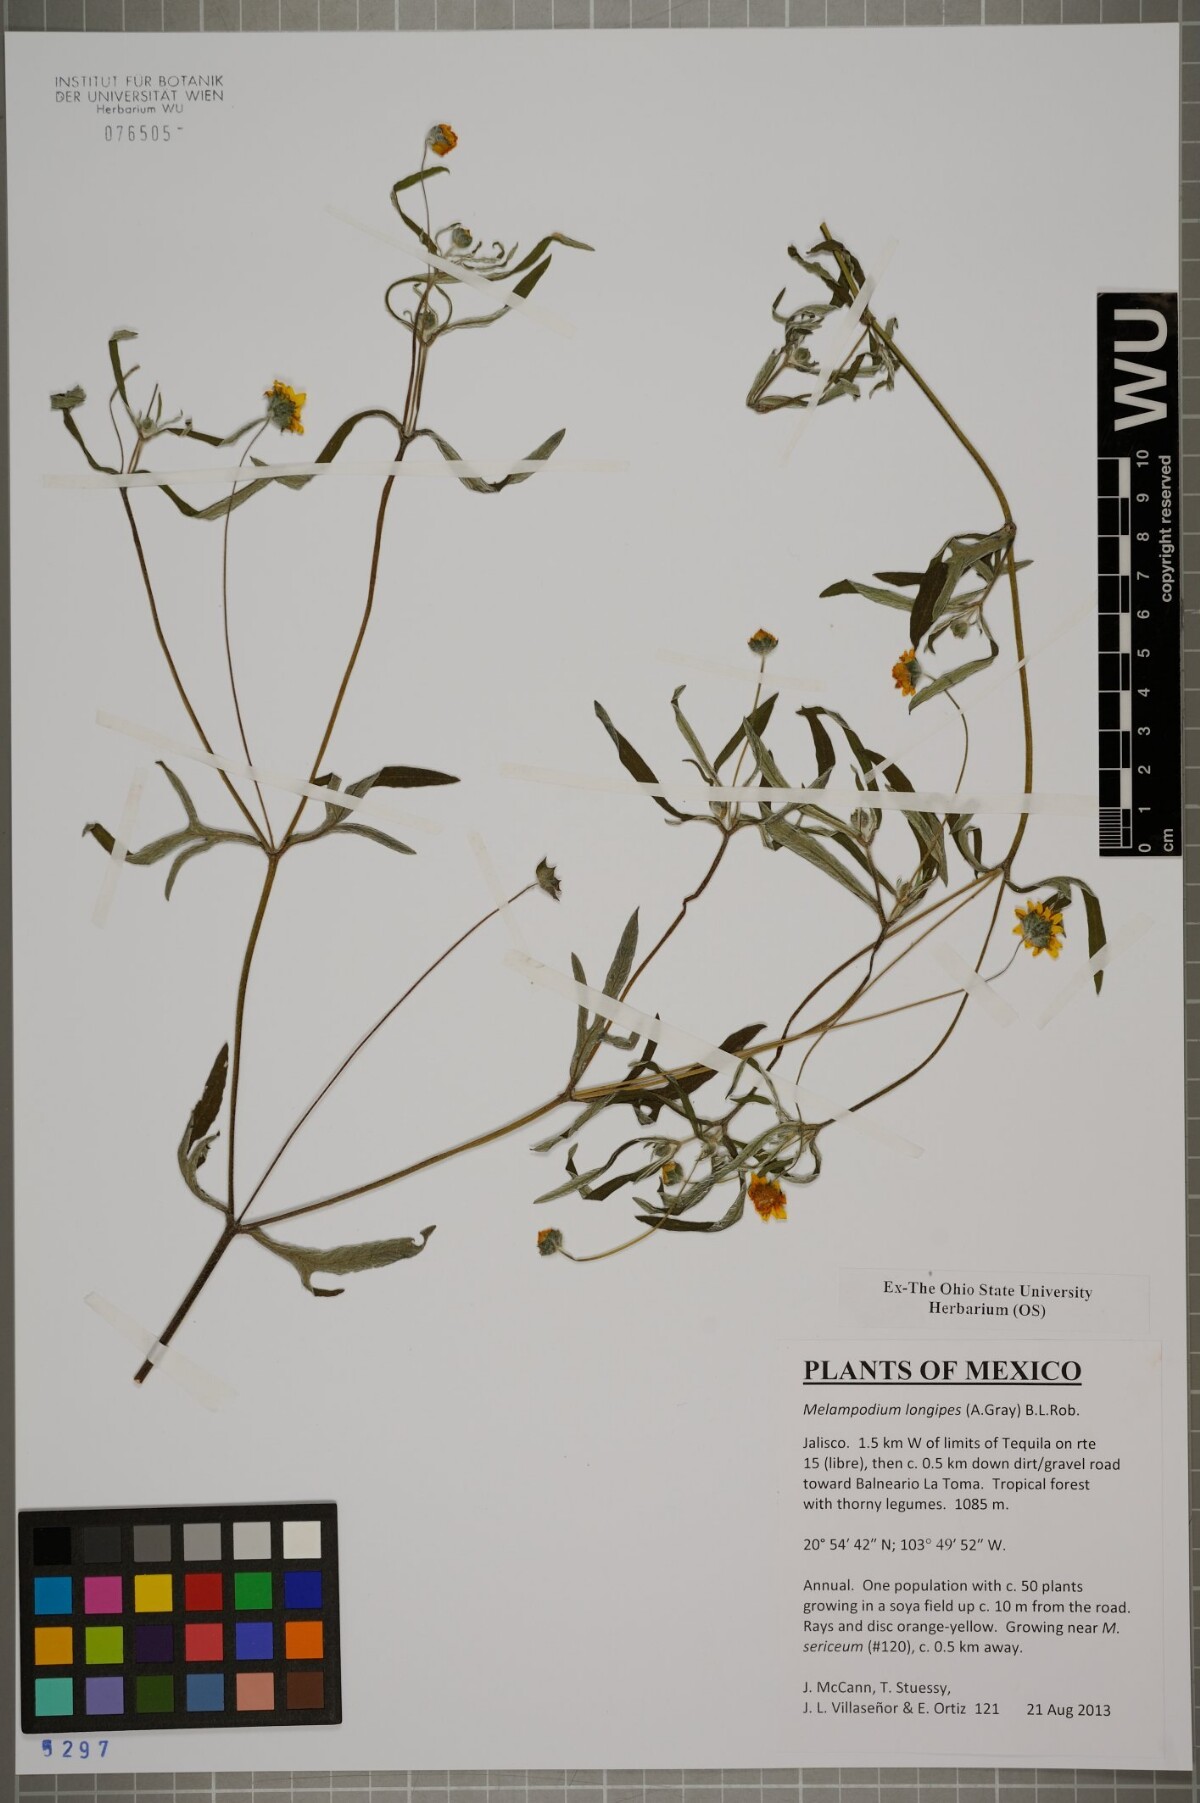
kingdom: Plantae
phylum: Tracheophyta
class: Magnoliopsida
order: Asterales
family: Asteraceae
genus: Melampodium
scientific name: Melampodium longipes
